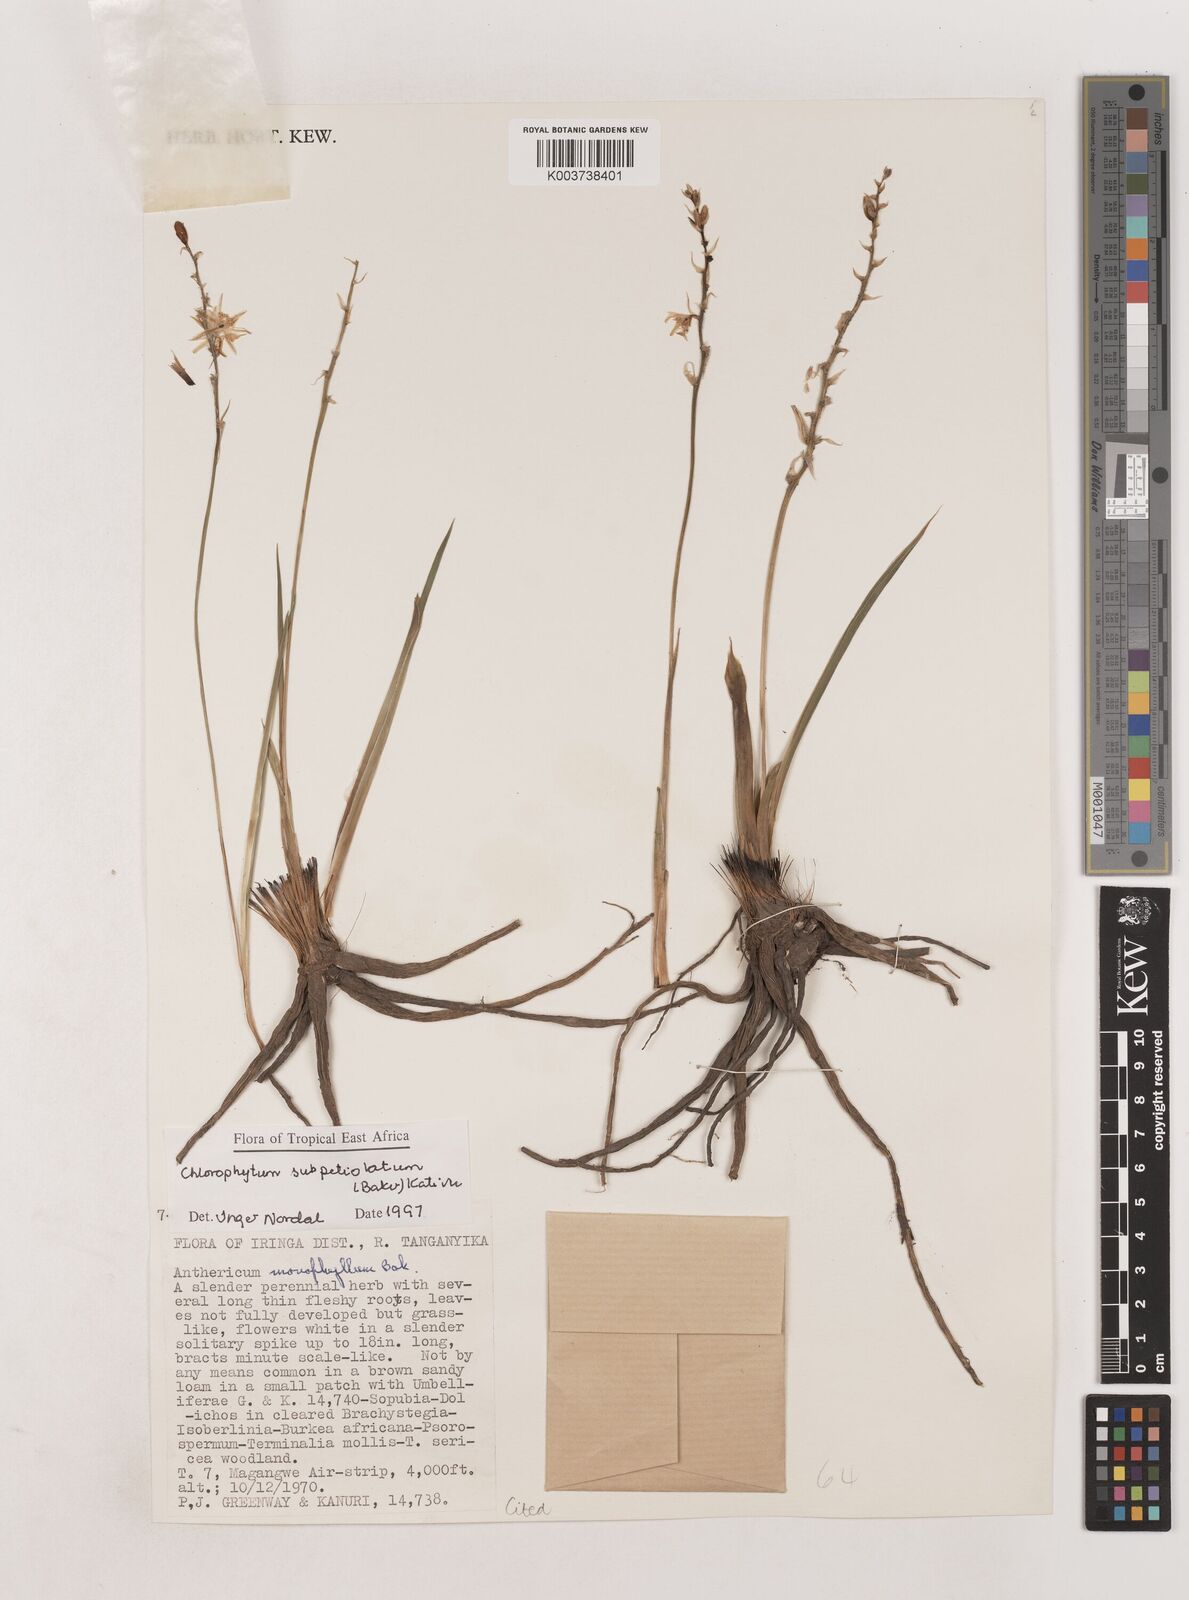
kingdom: Plantae
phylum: Tracheophyta
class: Liliopsida
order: Asparagales
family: Asparagaceae
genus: Chlorophytum
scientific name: Chlorophytum subpetiolatum
